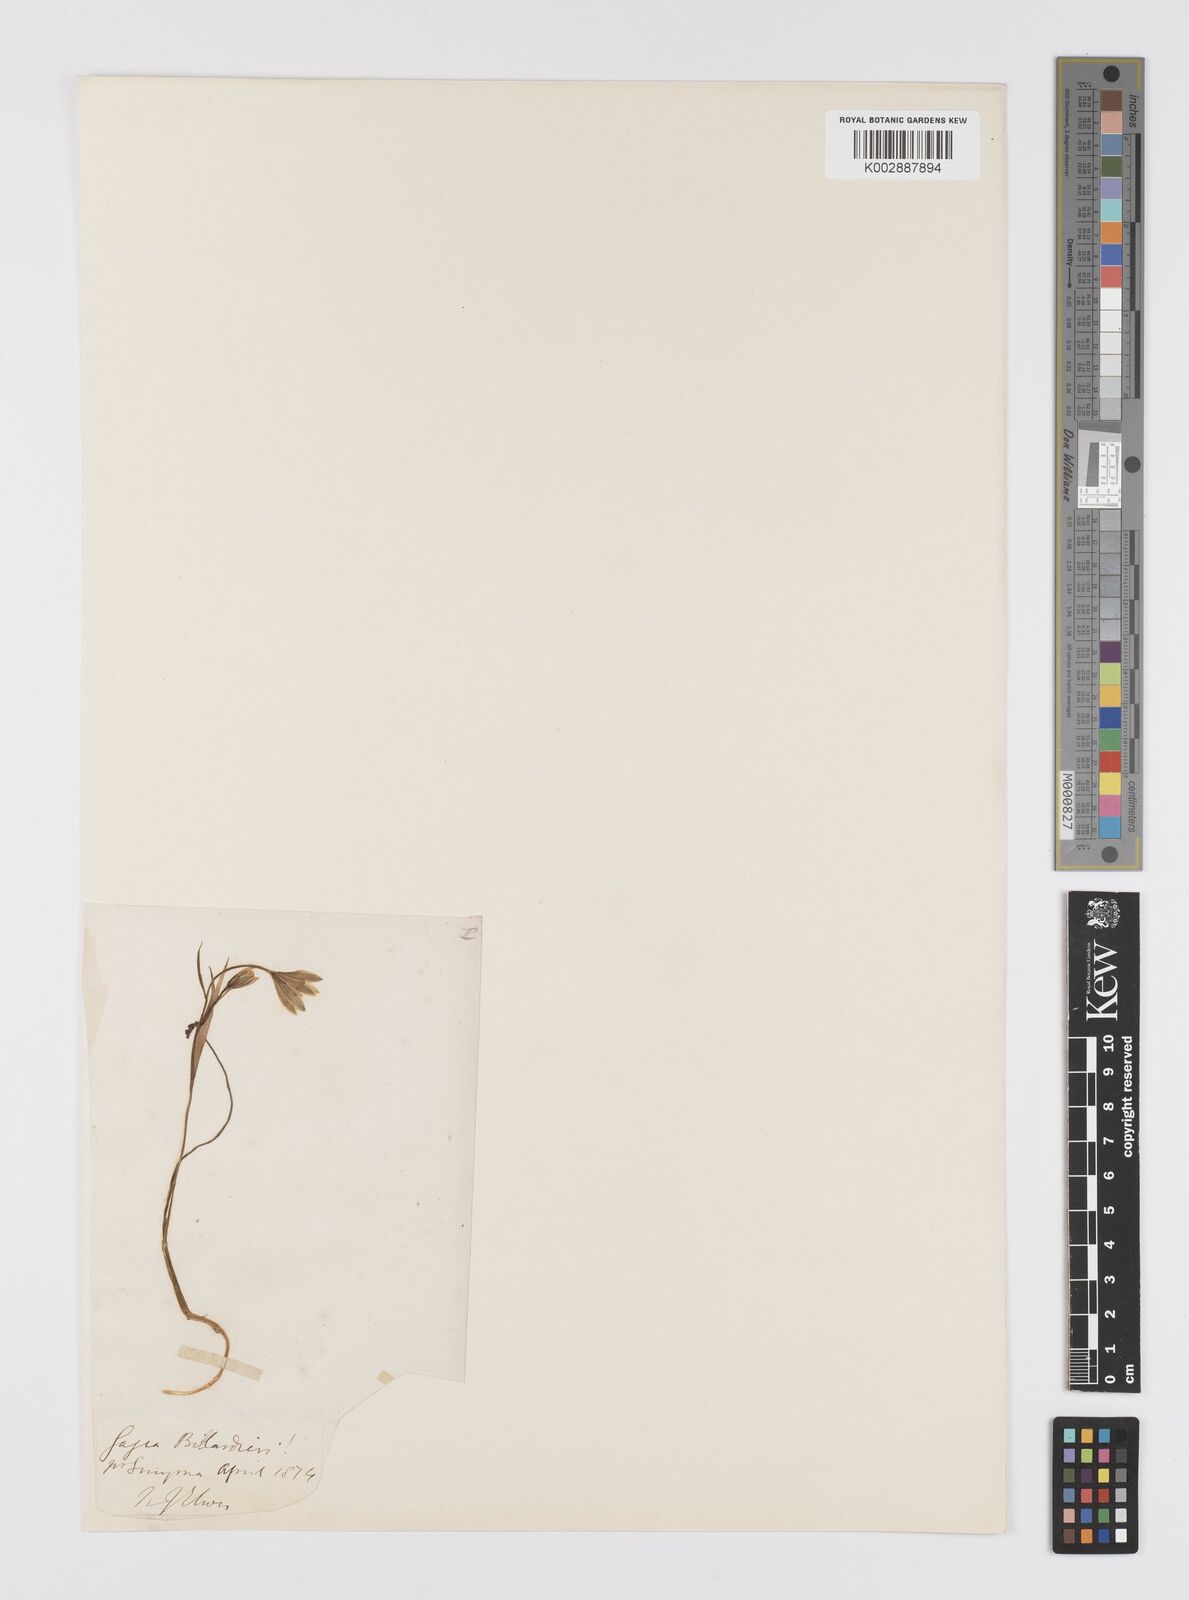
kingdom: Plantae
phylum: Tracheophyta
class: Liliopsida
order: Liliales
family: Liliaceae
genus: Gagea
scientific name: Gagea peduncularis
